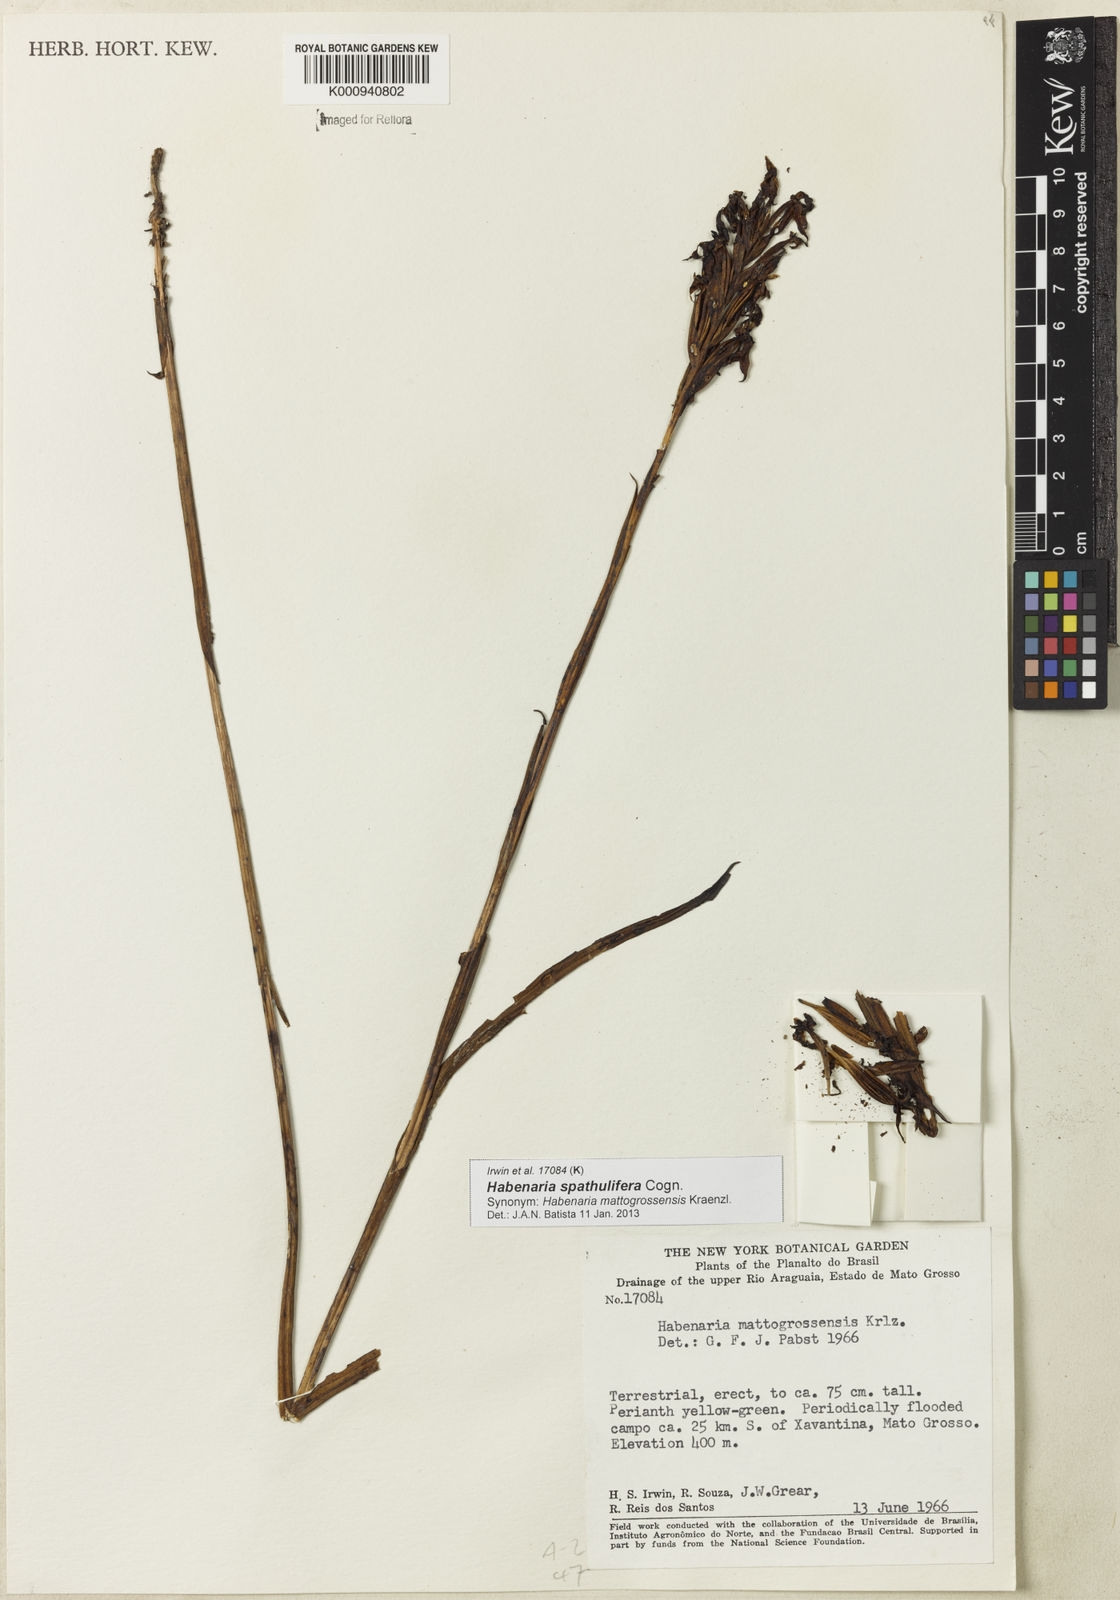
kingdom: Plantae
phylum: Tracheophyta
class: Liliopsida
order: Asparagales
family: Orchidaceae
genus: Habenaria
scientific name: Habenaria spathulifera
